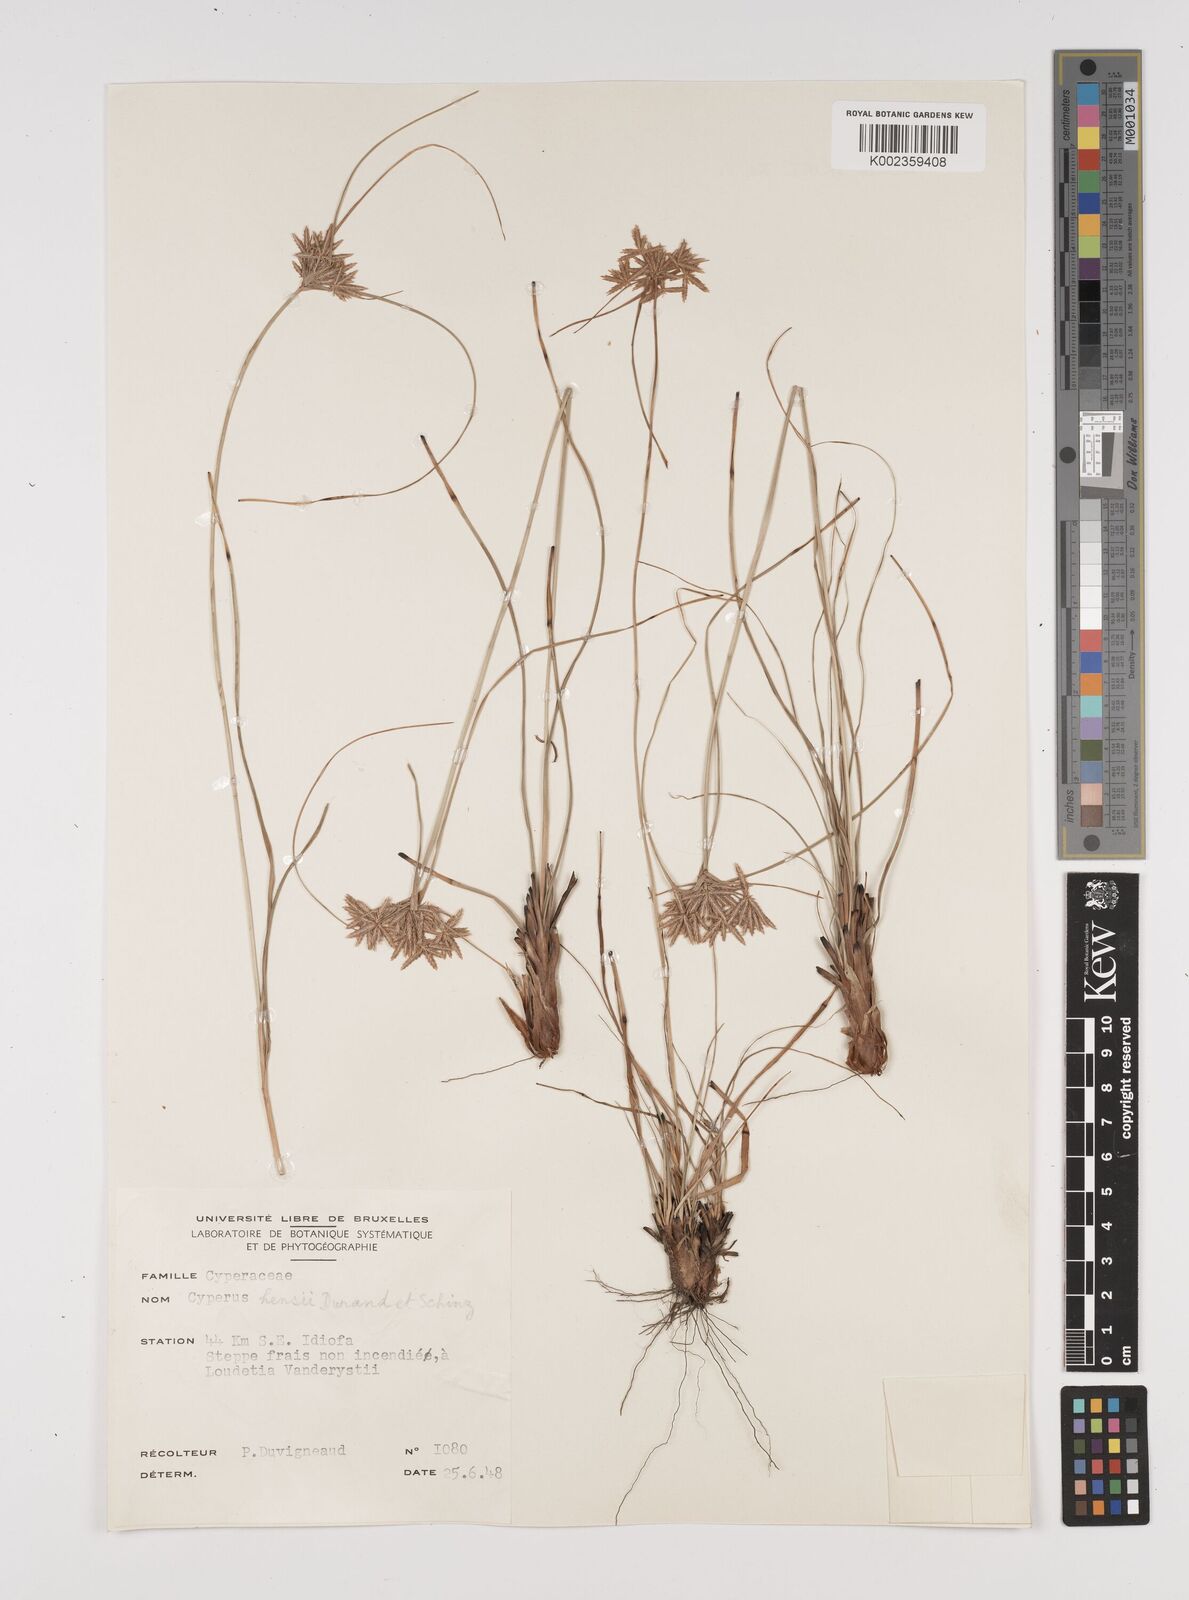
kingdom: Plantae
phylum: Tracheophyta
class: Liliopsida
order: Poales
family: Cyperaceae
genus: Cyperus
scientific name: Cyperus hensii
